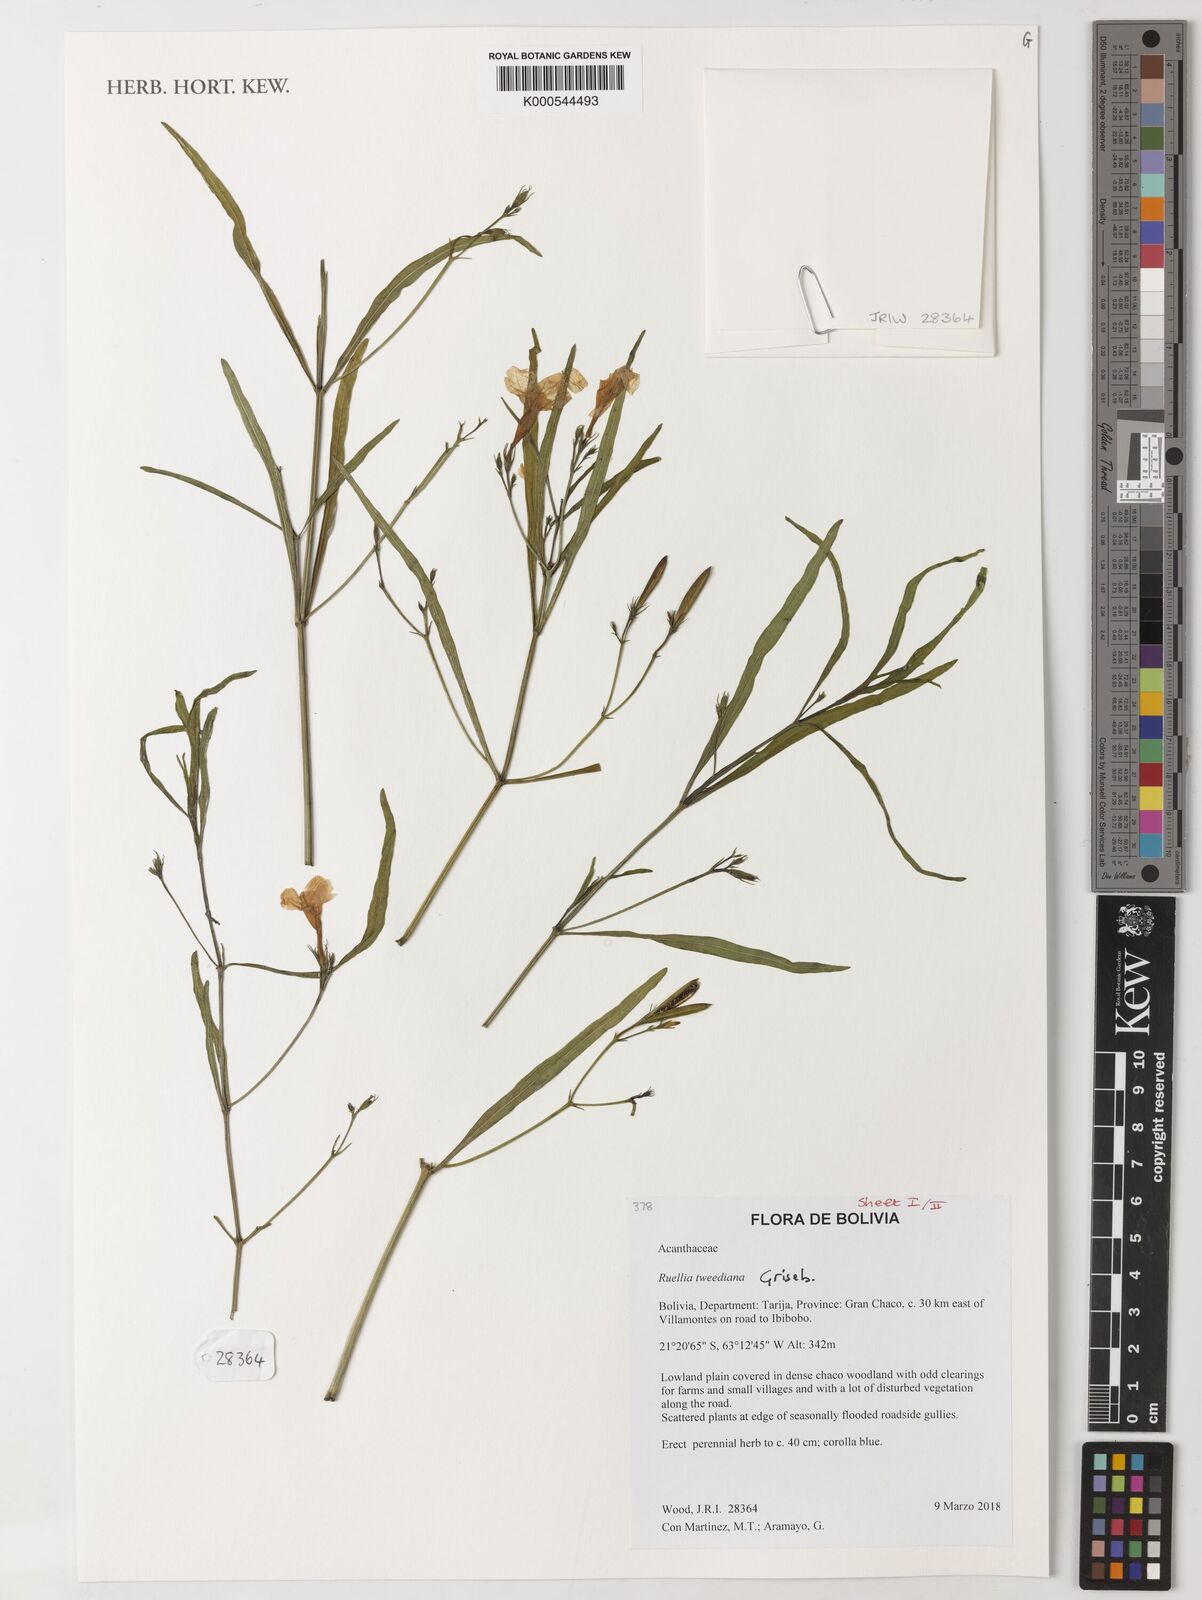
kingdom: Plantae
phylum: Tracheophyta
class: Magnoliopsida
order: Lamiales
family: Acanthaceae
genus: Ruellia
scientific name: Ruellia simplex
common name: Softseed wild petunia
